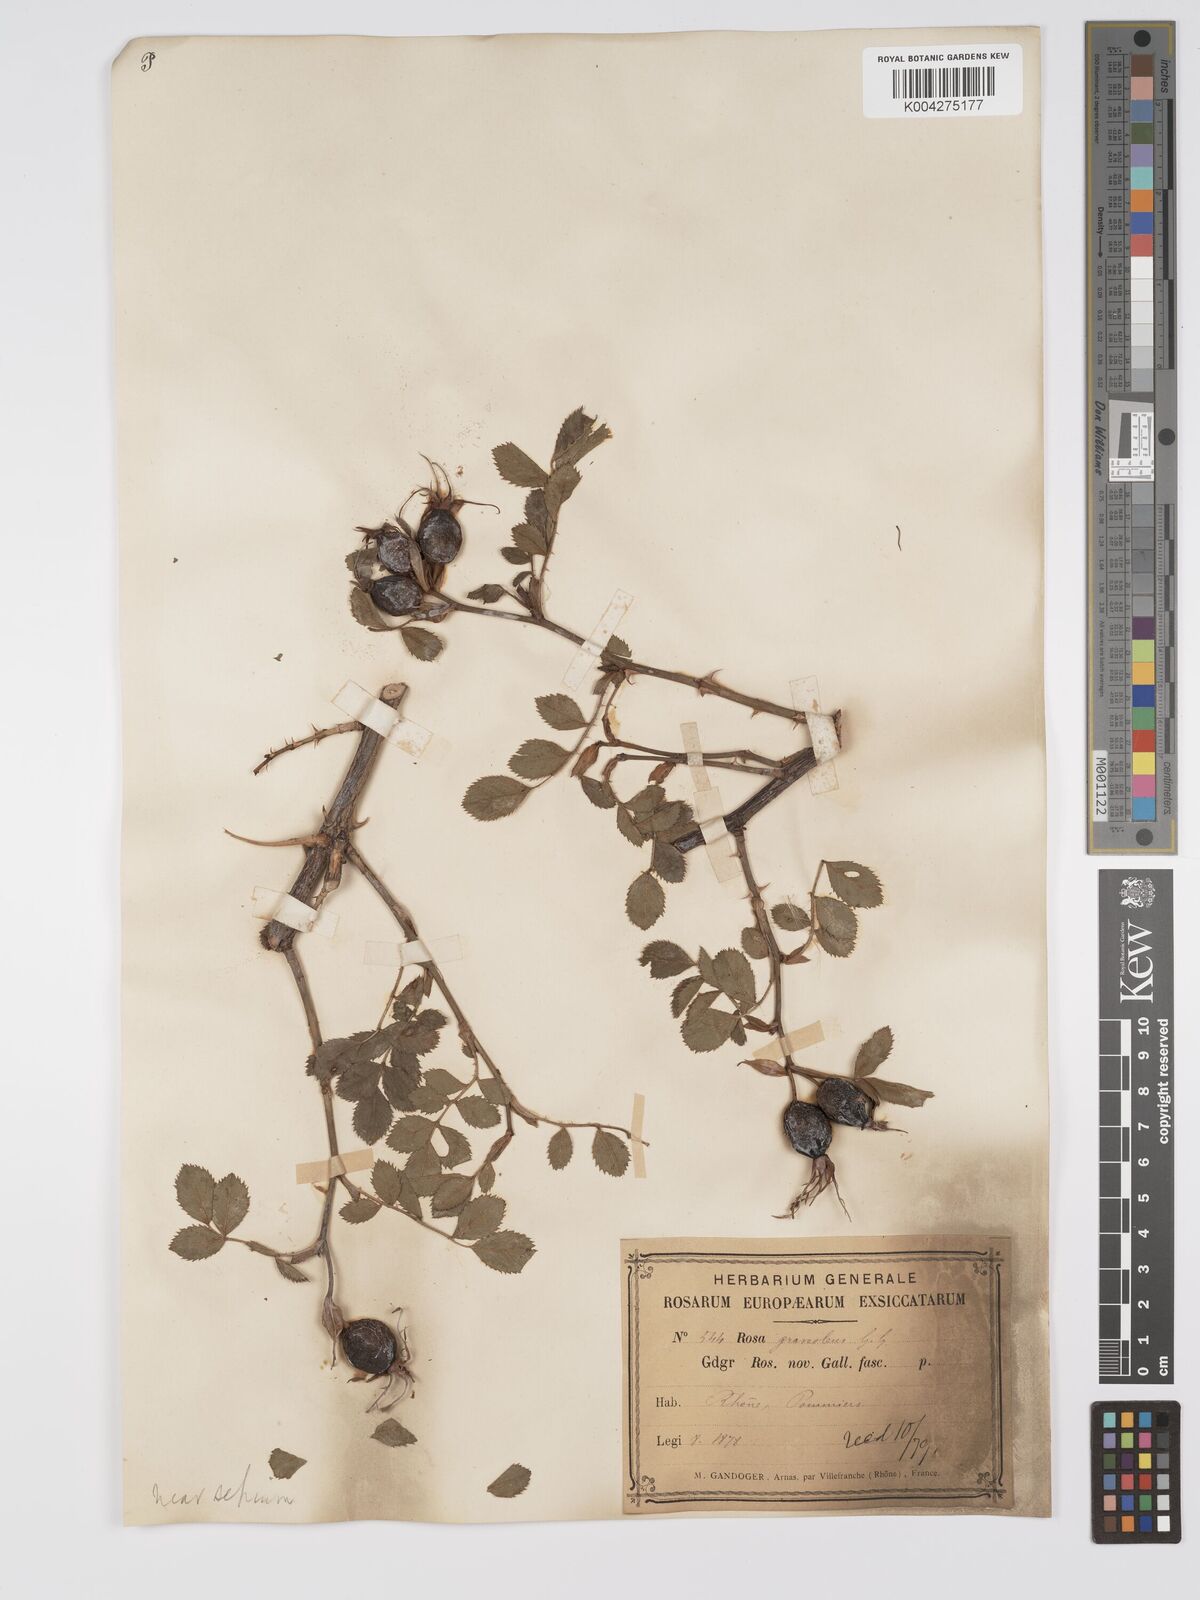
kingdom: Plantae
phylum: Tracheophyta
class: Magnoliopsida
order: Rosales
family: Rosaceae
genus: Rosa
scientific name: Rosa
